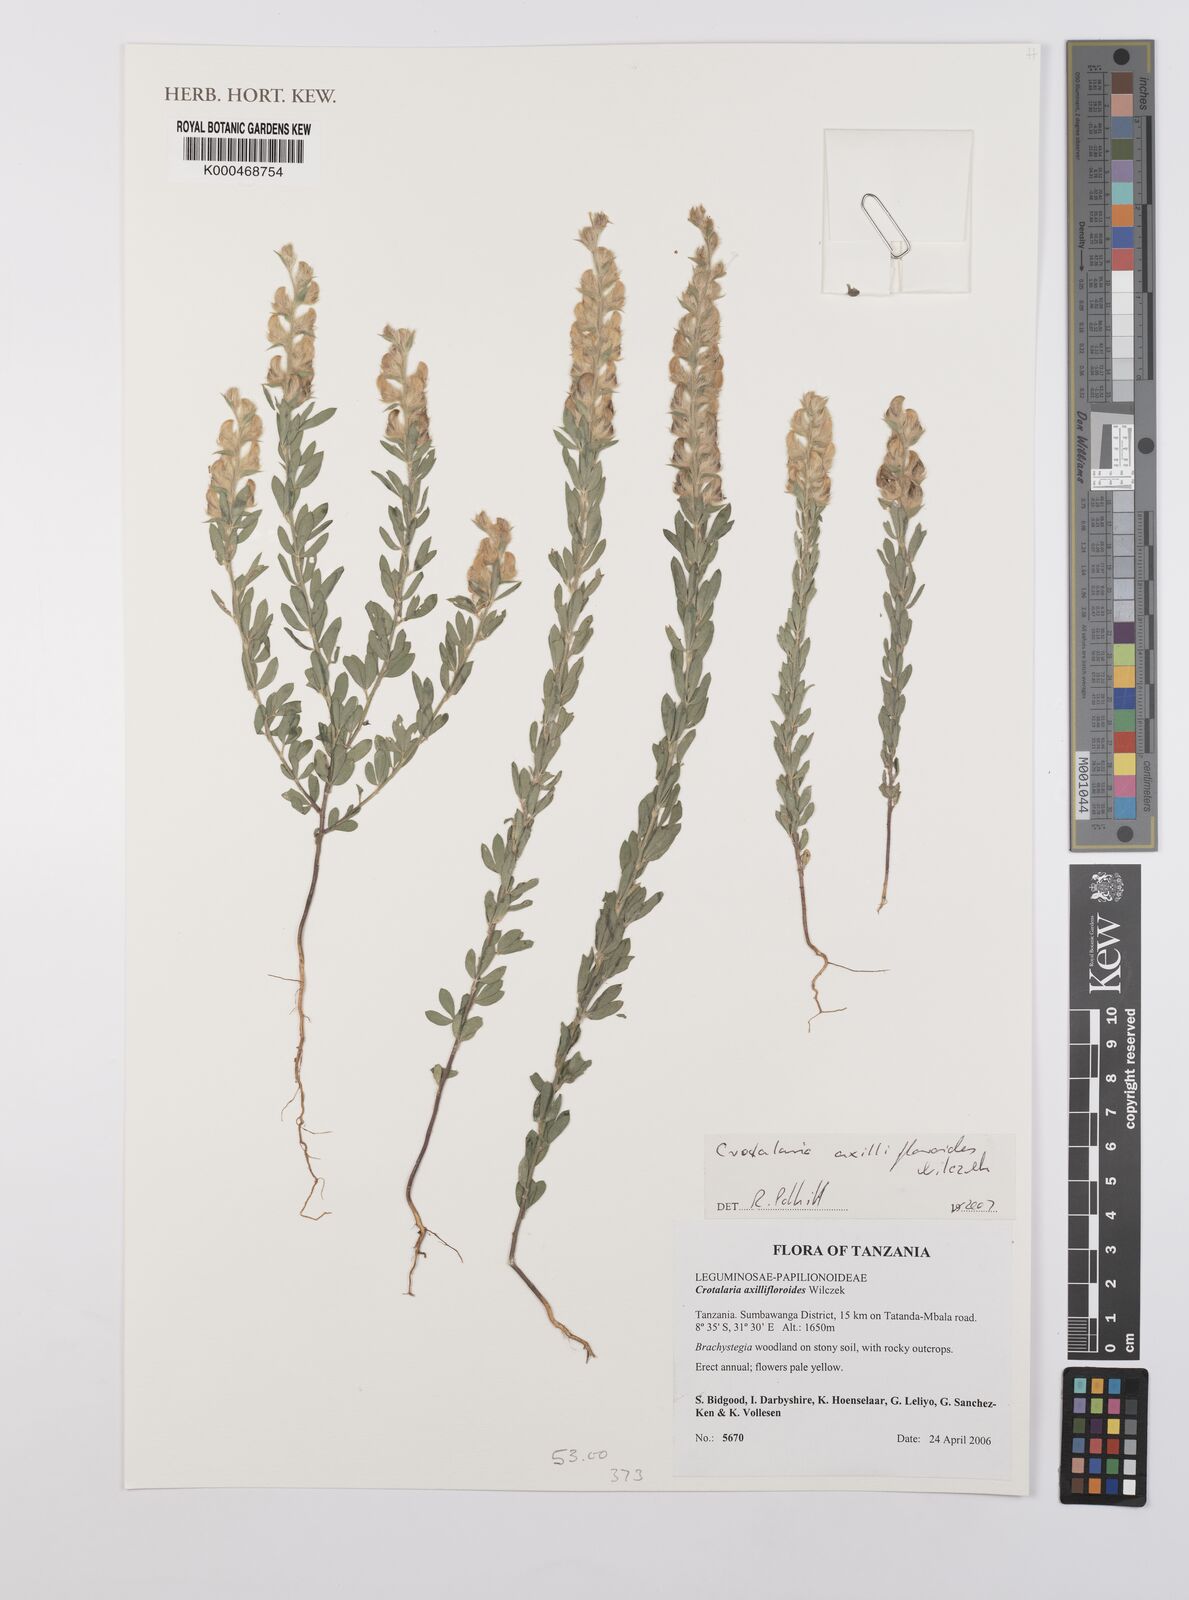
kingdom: Plantae
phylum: Tracheophyta
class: Magnoliopsida
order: Fabales
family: Fabaceae
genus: Crotalaria
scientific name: Crotalaria axillifloroides ex
